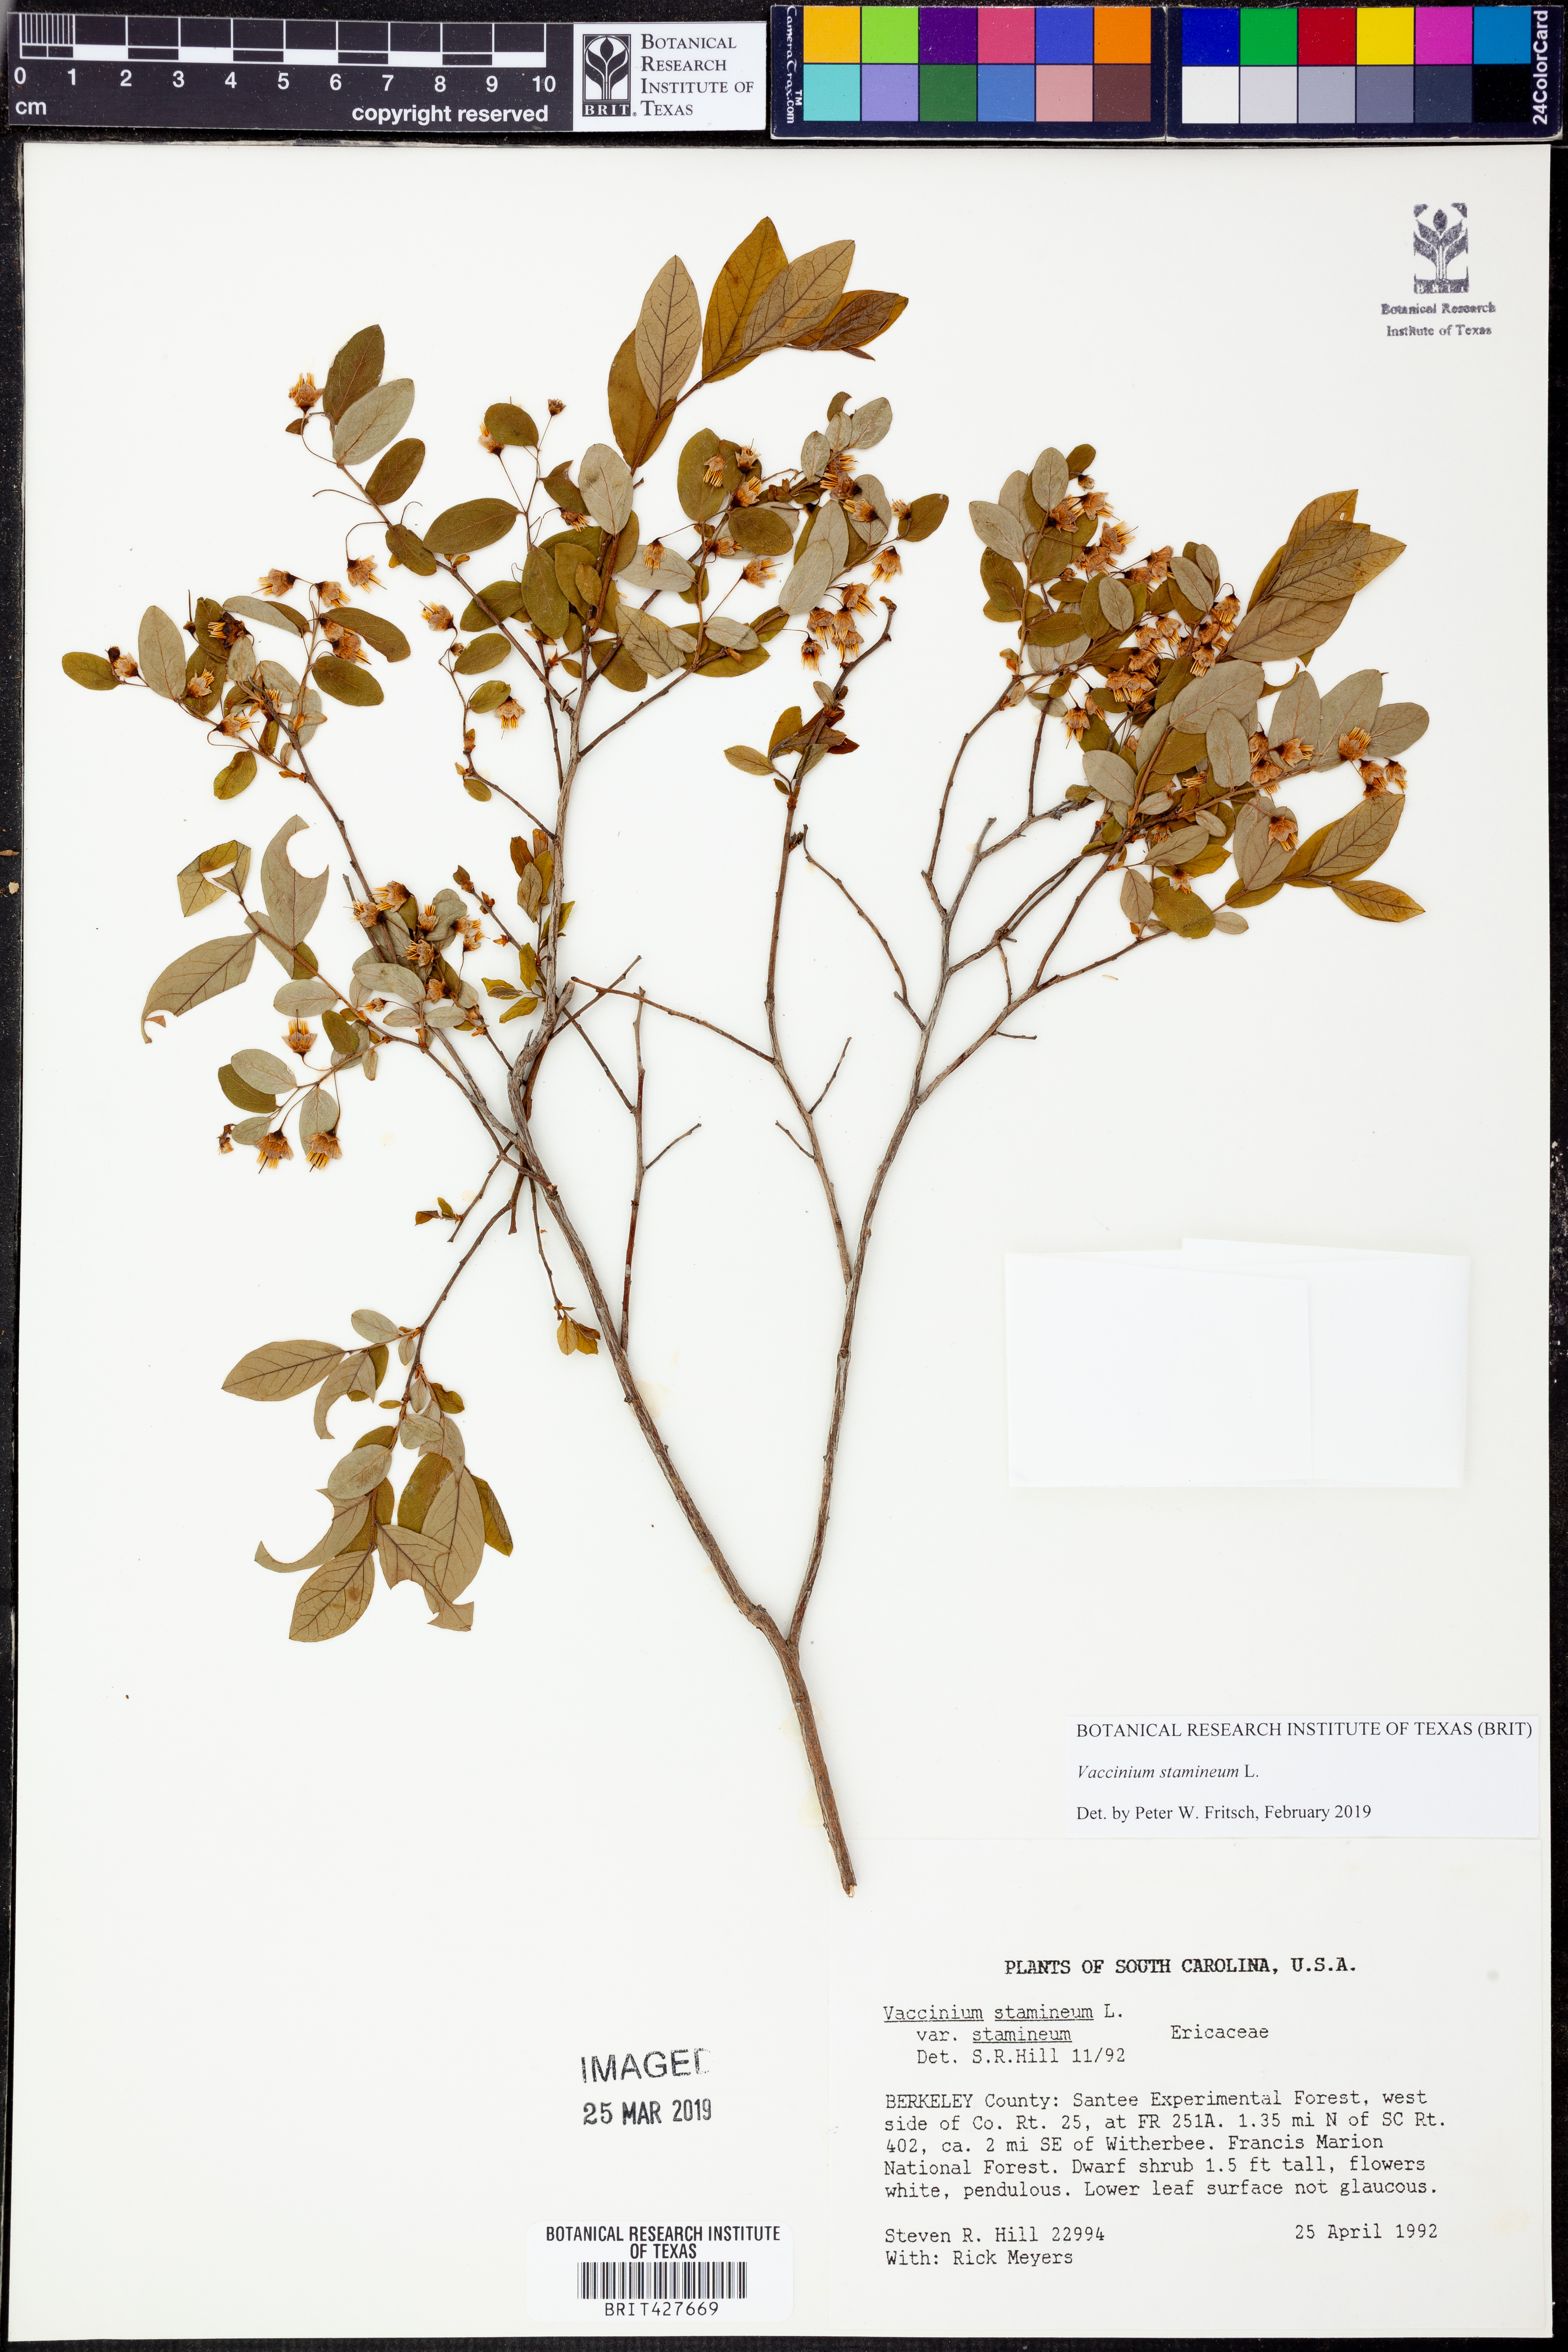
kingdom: Plantae
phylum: Tracheophyta
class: Magnoliopsida
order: Ericales
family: Ericaceae
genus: Vaccinium
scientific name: Vaccinium stamineum
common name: Deerberry
